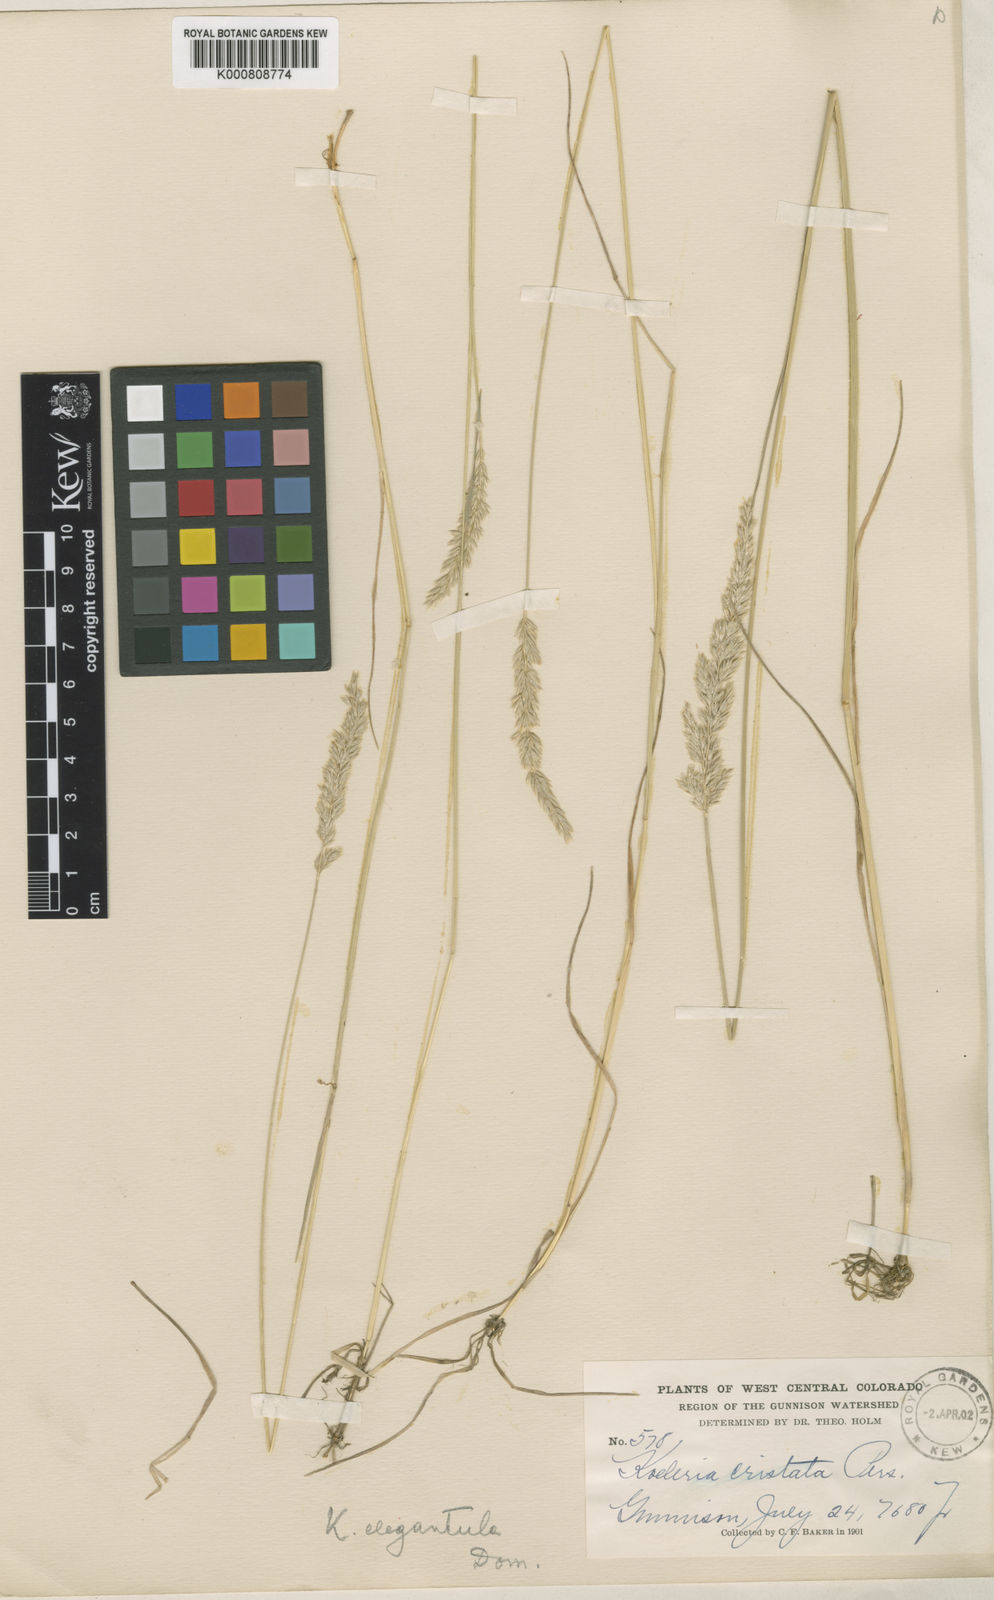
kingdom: Plantae
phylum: Tracheophyta
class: Liliopsida
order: Poales
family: Poaceae
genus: Koeleria
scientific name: Koeleria macrantha
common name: Crested hair-grass
